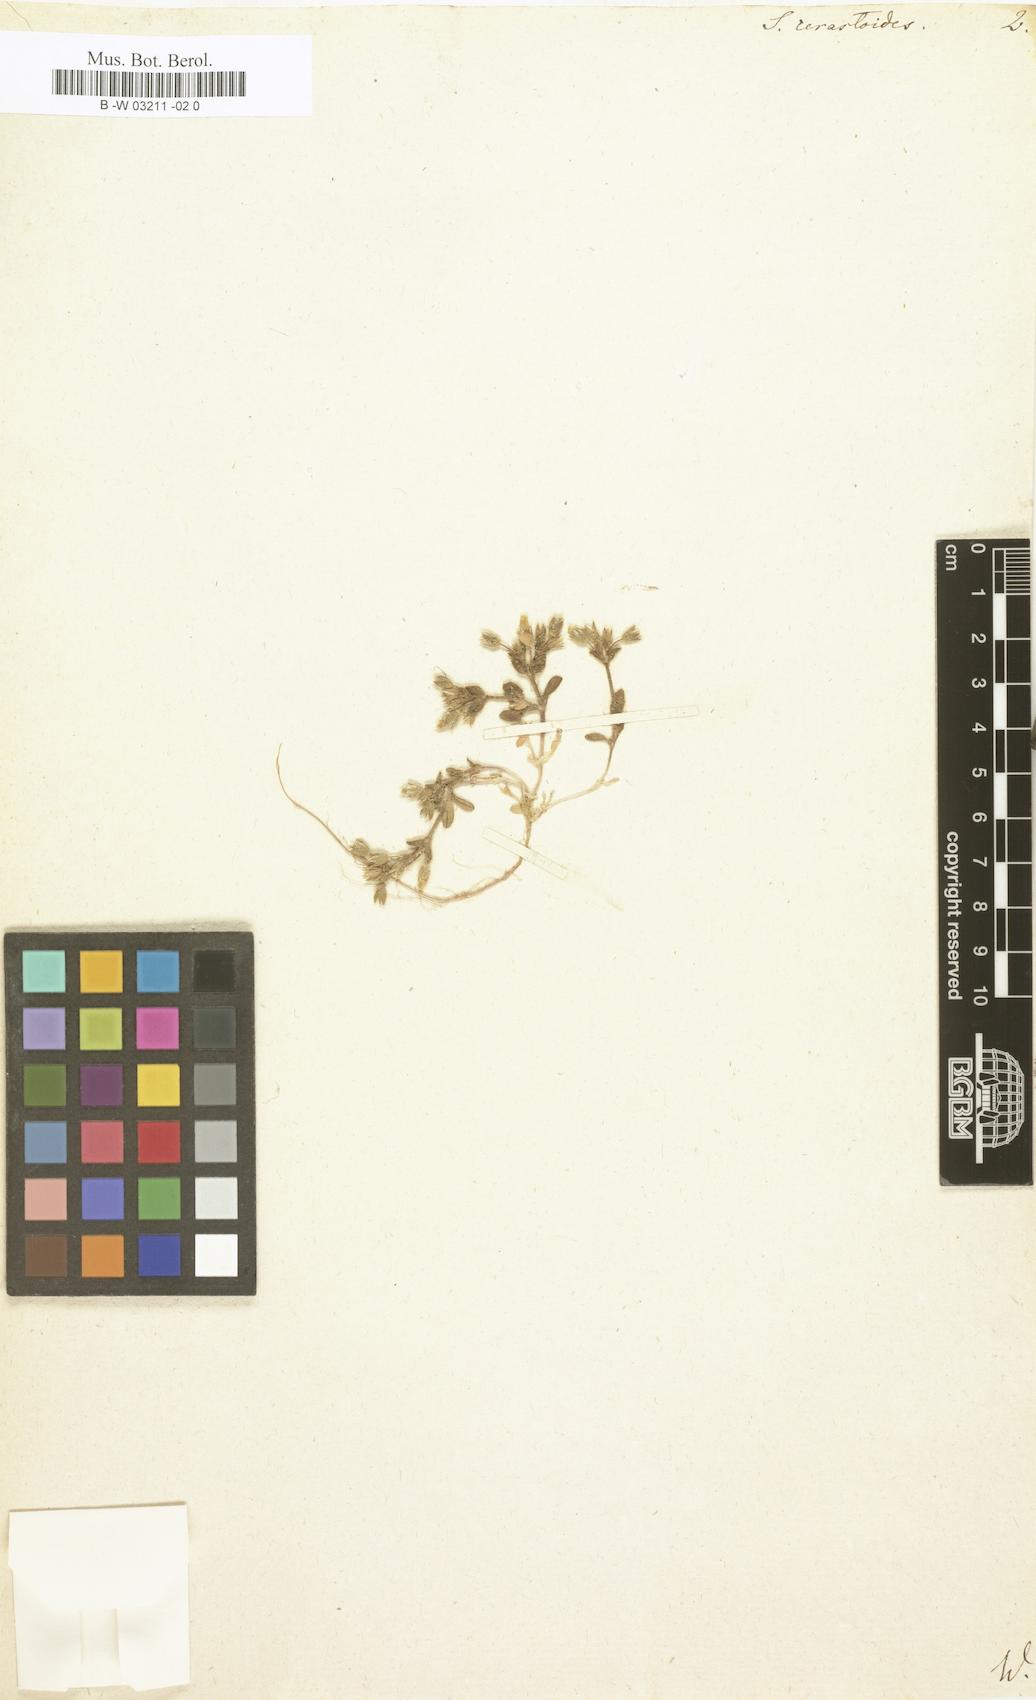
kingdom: Plantae
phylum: Tracheophyta
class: Magnoliopsida
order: Caryophyllales
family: Caryophyllaceae
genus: Cerastium
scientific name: Cerastium diffusum
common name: Fourstamen chickweed
